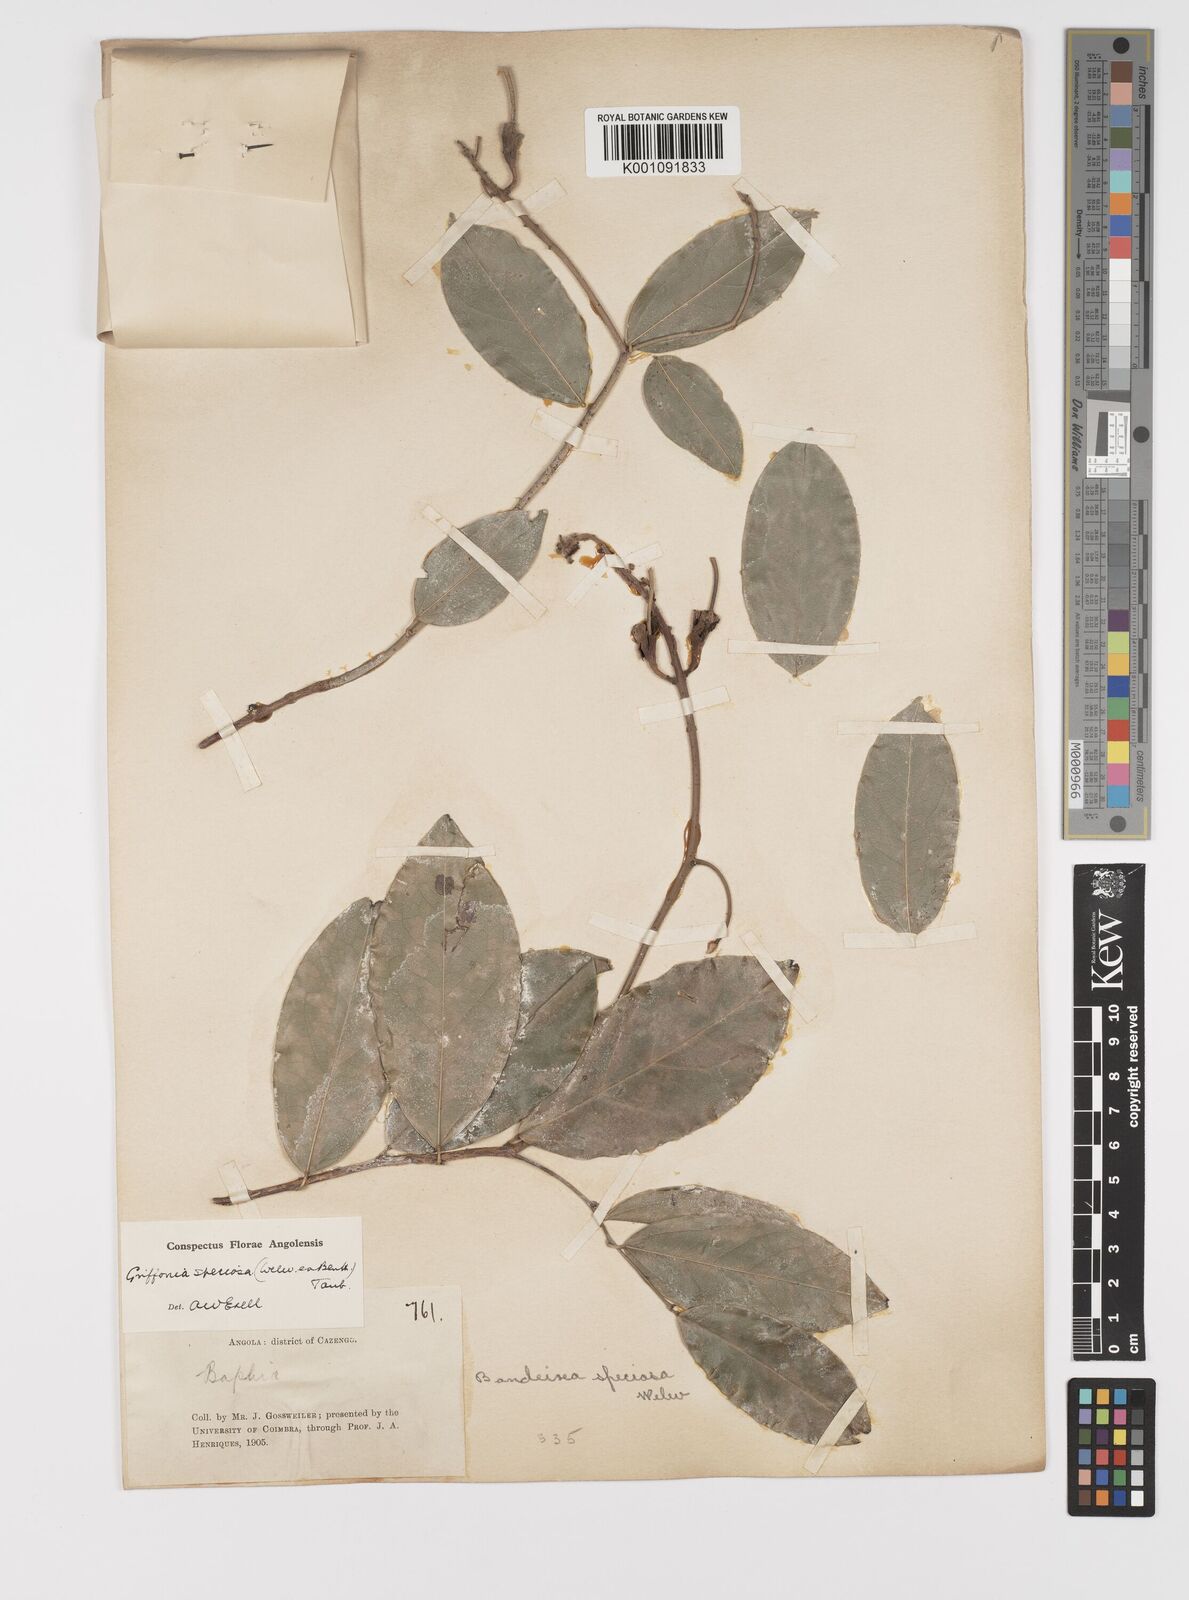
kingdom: Plantae
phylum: Tracheophyta
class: Magnoliopsida
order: Fabales
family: Fabaceae
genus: Griffonia
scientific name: Griffonia speciosa
